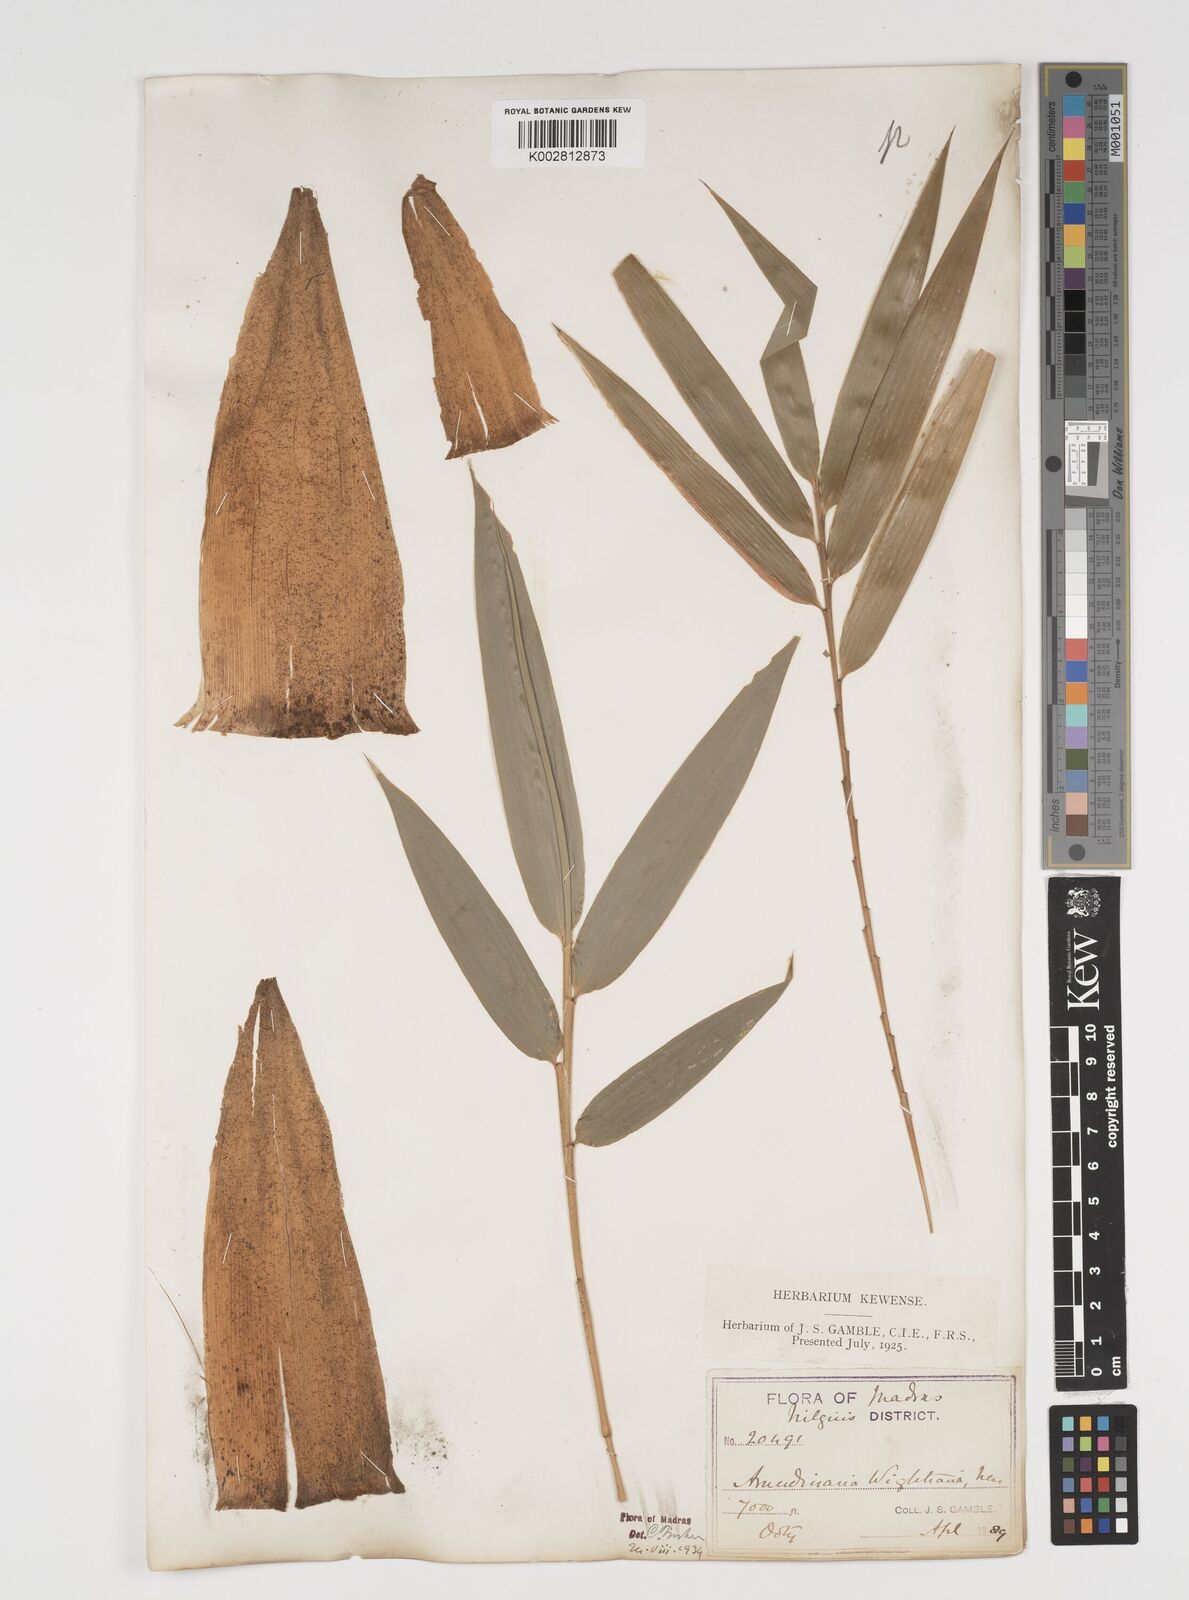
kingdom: Plantae
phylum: Tracheophyta
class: Liliopsida
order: Poales
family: Poaceae
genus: Kuruna
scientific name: Kuruna wightiana
